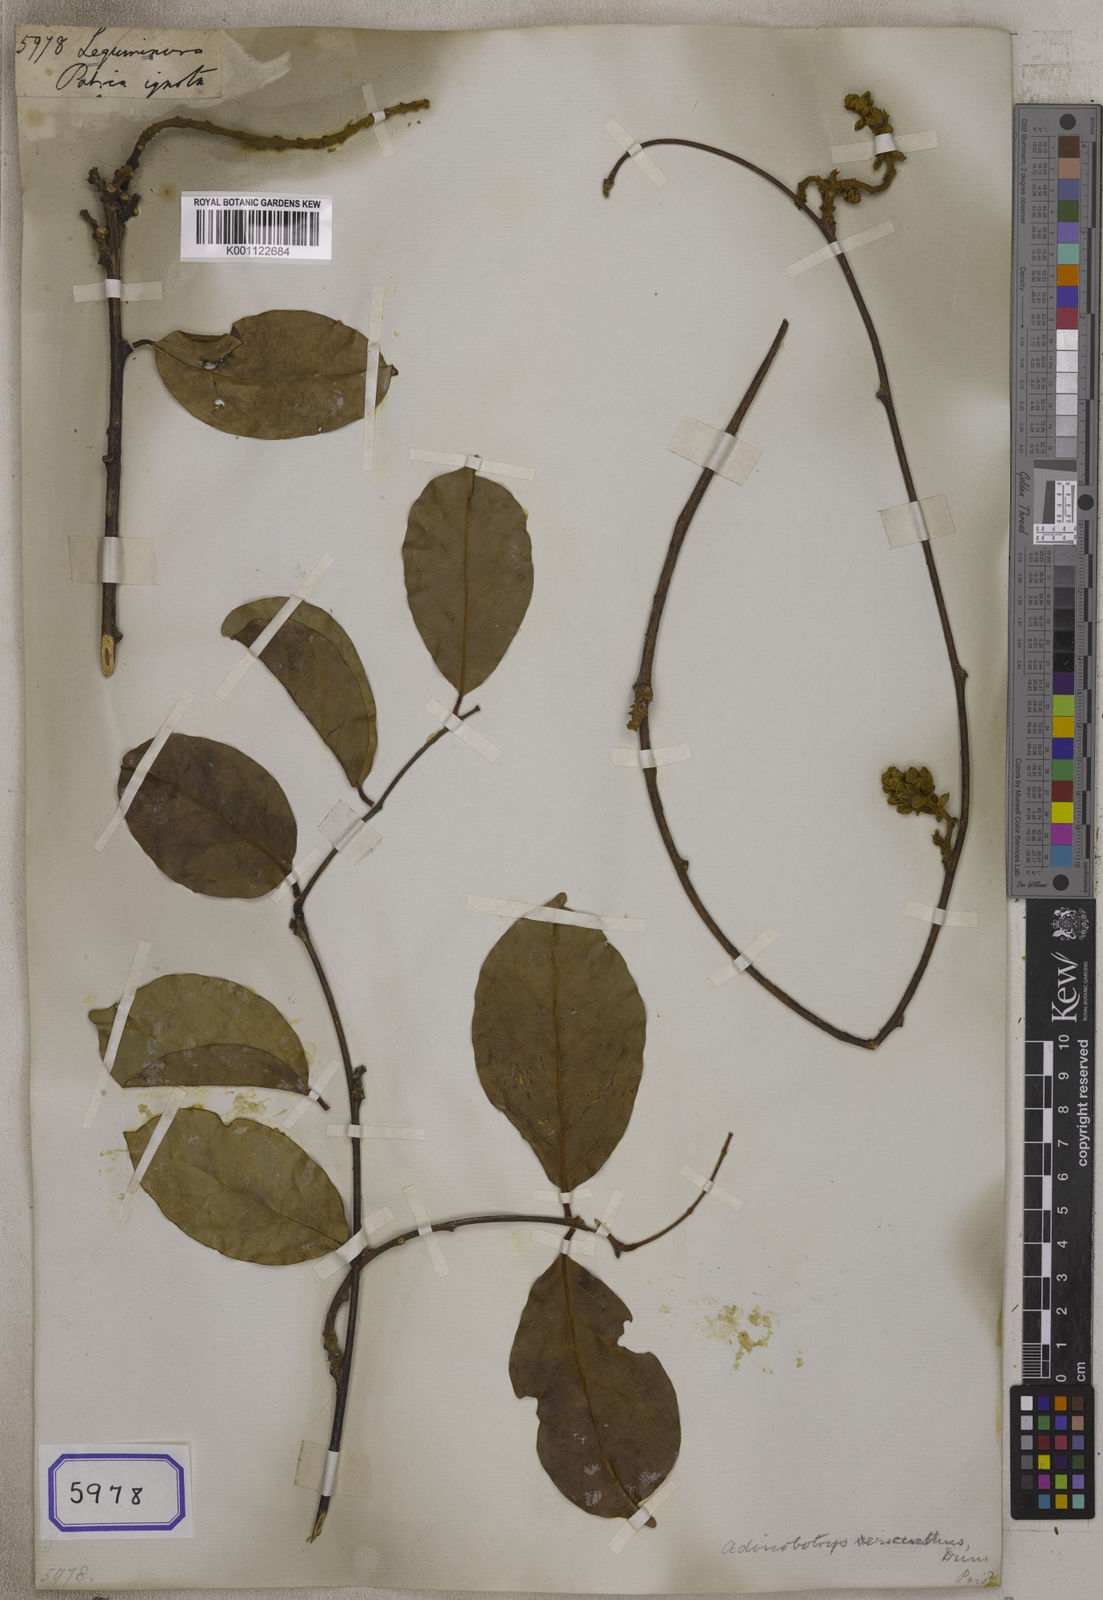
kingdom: Plantae
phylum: Tracheophyta
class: Magnoliopsida
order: Fabales
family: Fabaceae
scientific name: Fabaceae
